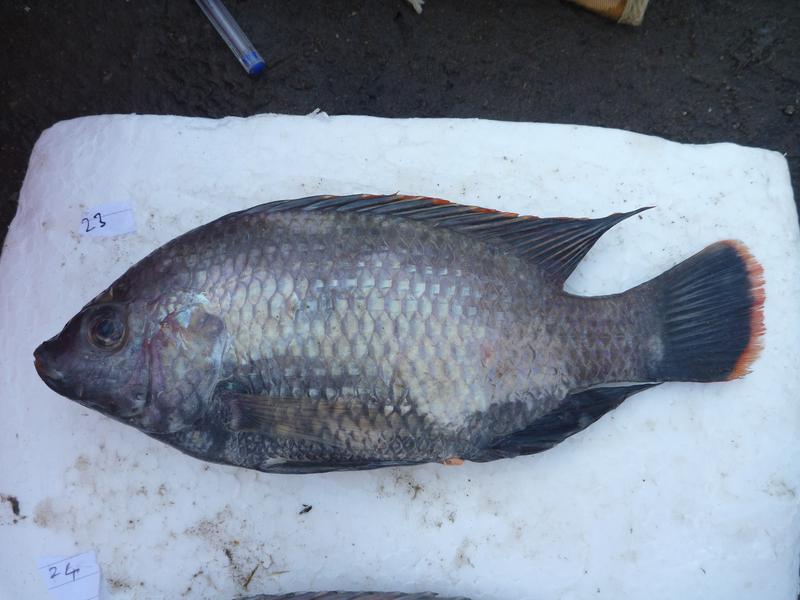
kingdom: Animalia
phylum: Chordata
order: Perciformes
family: Cichlidae
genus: Oreochromis
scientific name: Oreochromis rukwaensis
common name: Lake rukwa tilapia
